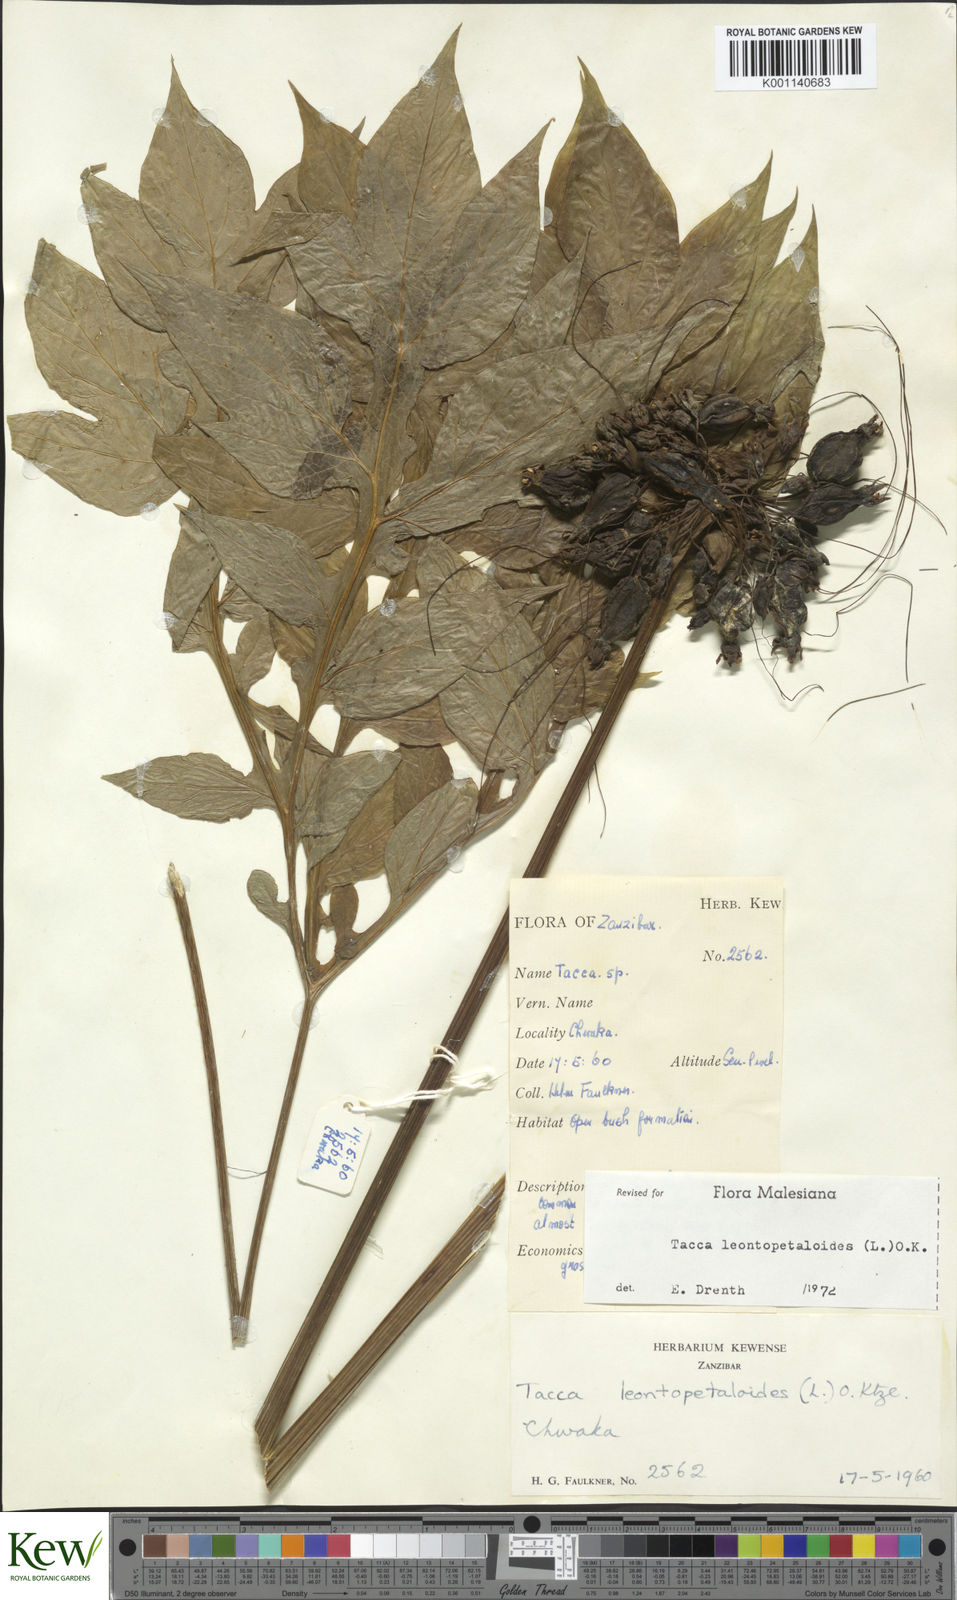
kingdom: Plantae
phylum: Tracheophyta
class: Liliopsida
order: Dioscoreales
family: Dioscoreaceae
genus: Tacca
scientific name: Tacca leontopetaloides
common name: Arrowroot
